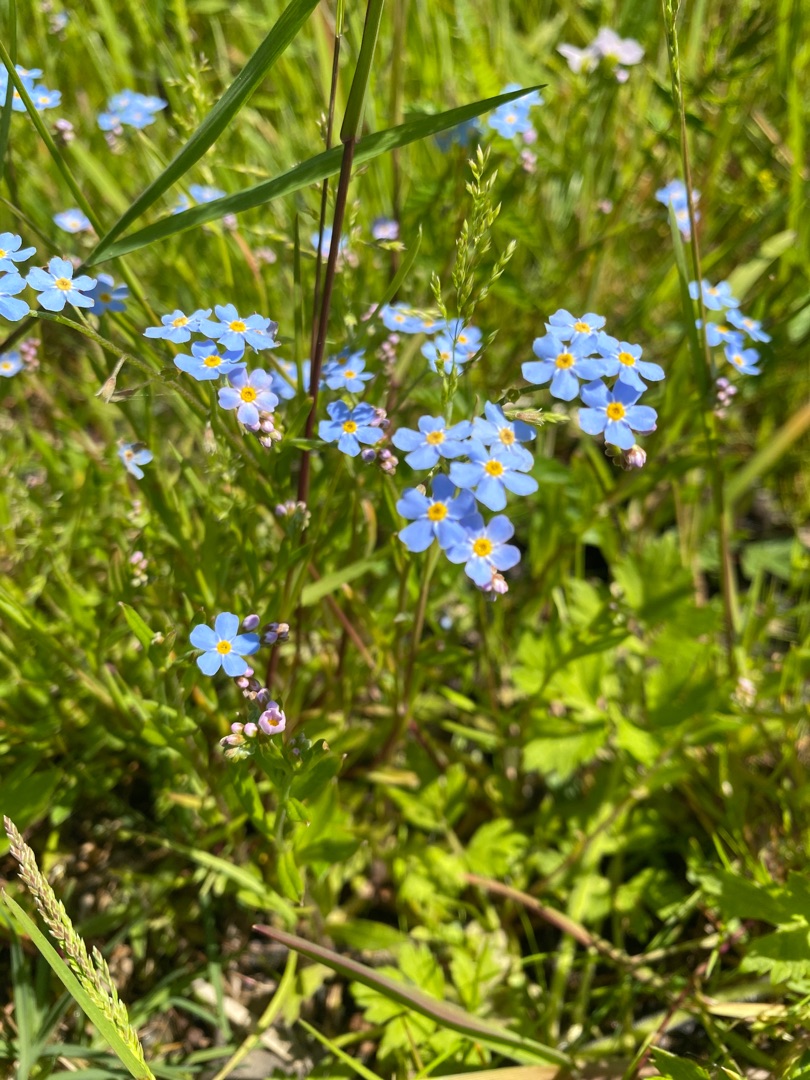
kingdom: Plantae
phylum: Tracheophyta
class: Magnoliopsida
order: Boraginales
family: Boraginaceae
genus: Myosotis
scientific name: Myosotis scorpioides
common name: Eng-forglemmigej
